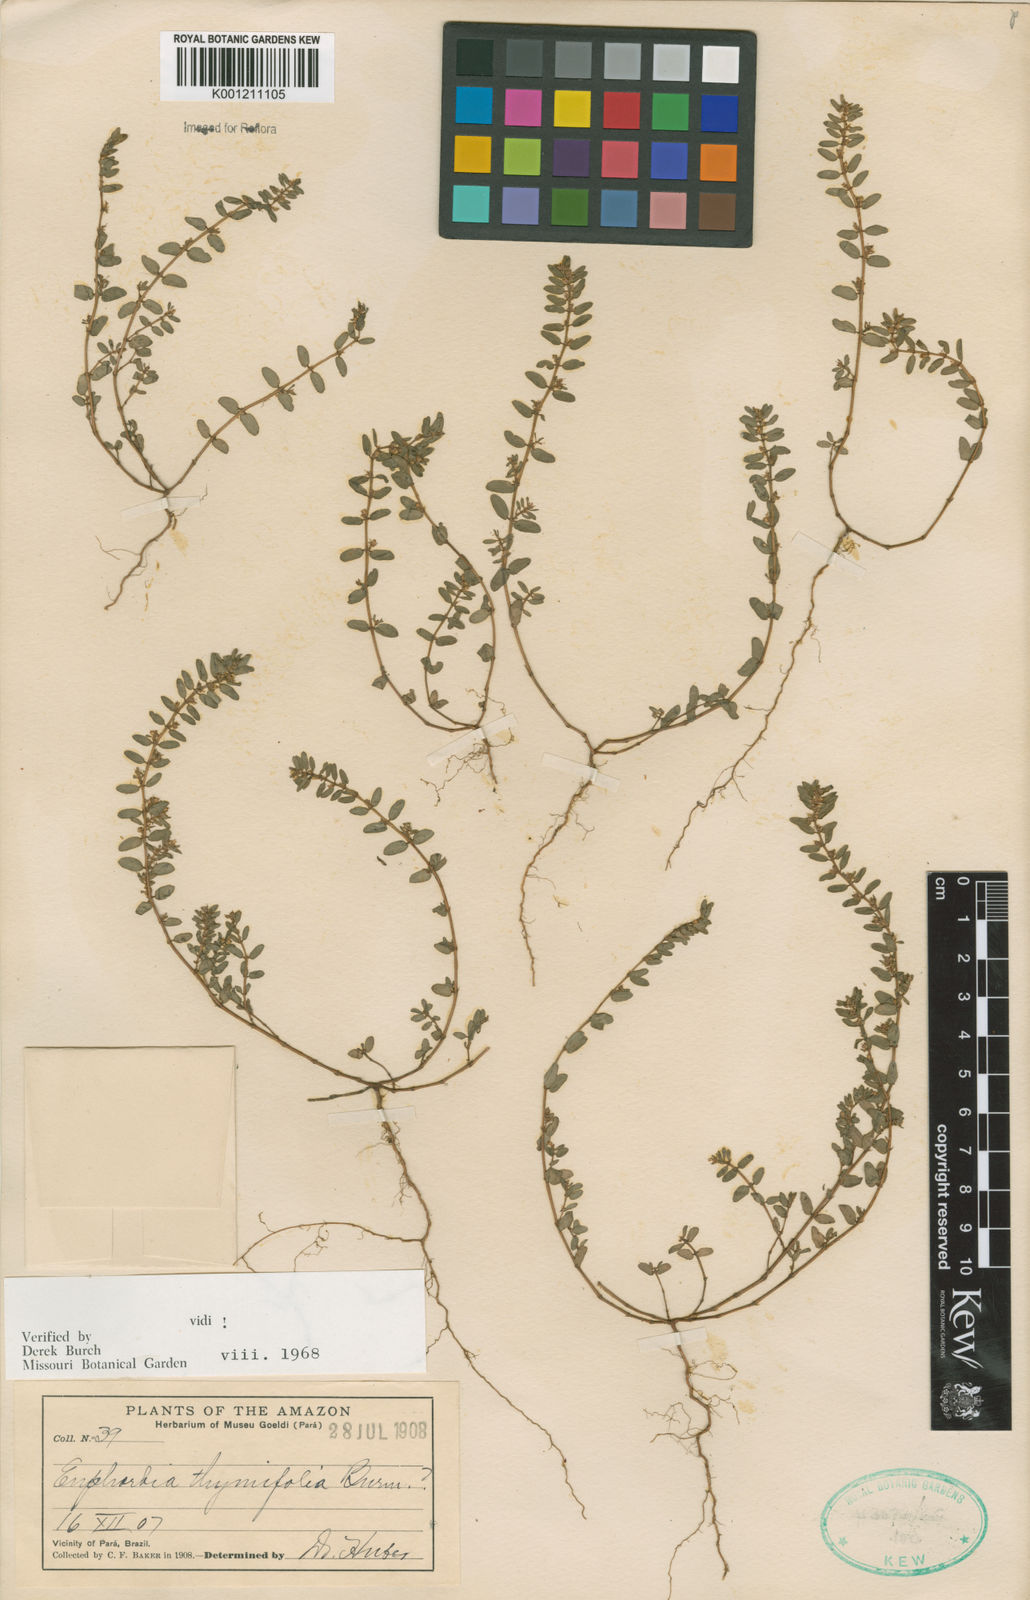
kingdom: Plantae
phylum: Tracheophyta
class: Magnoliopsida
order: Malpighiales
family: Euphorbiaceae
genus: Euphorbia
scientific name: Euphorbia thymifolia
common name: Gulf sandmat
